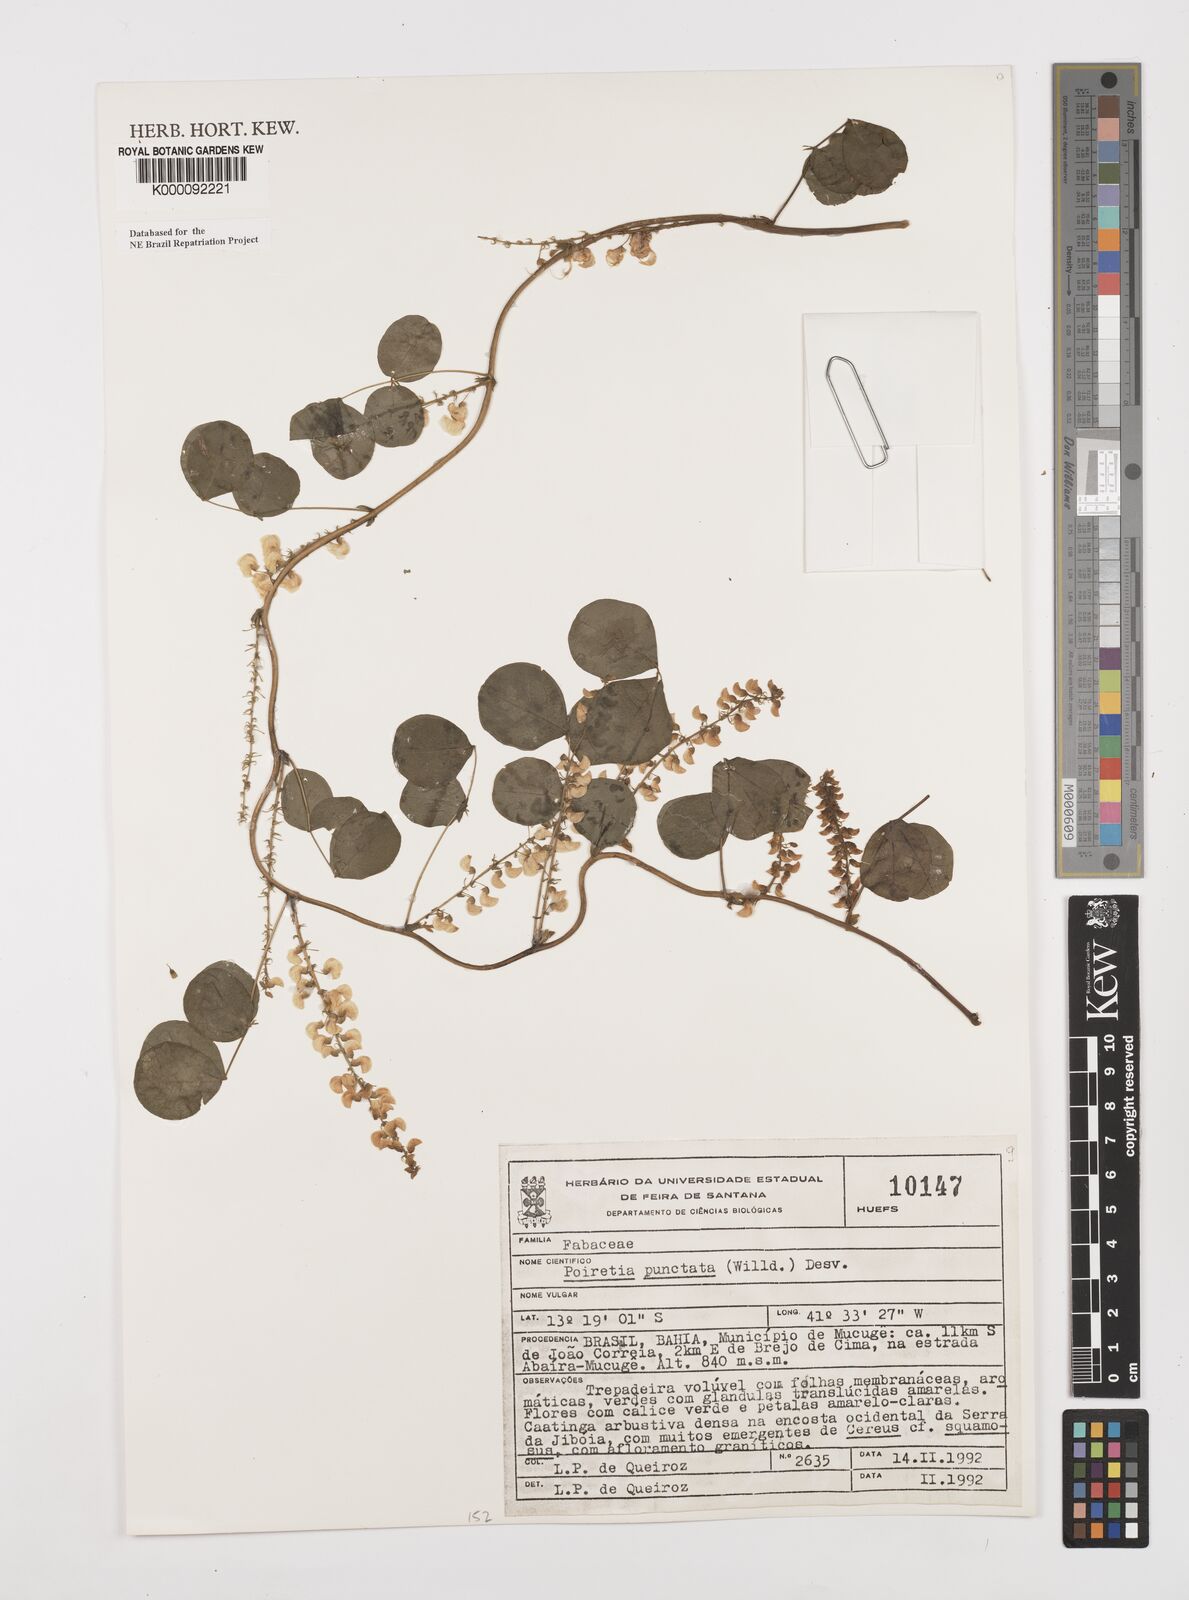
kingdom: Plantae
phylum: Tracheophyta
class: Magnoliopsida
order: Fabales
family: Fabaceae
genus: Poiretia
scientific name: Poiretia punctata
